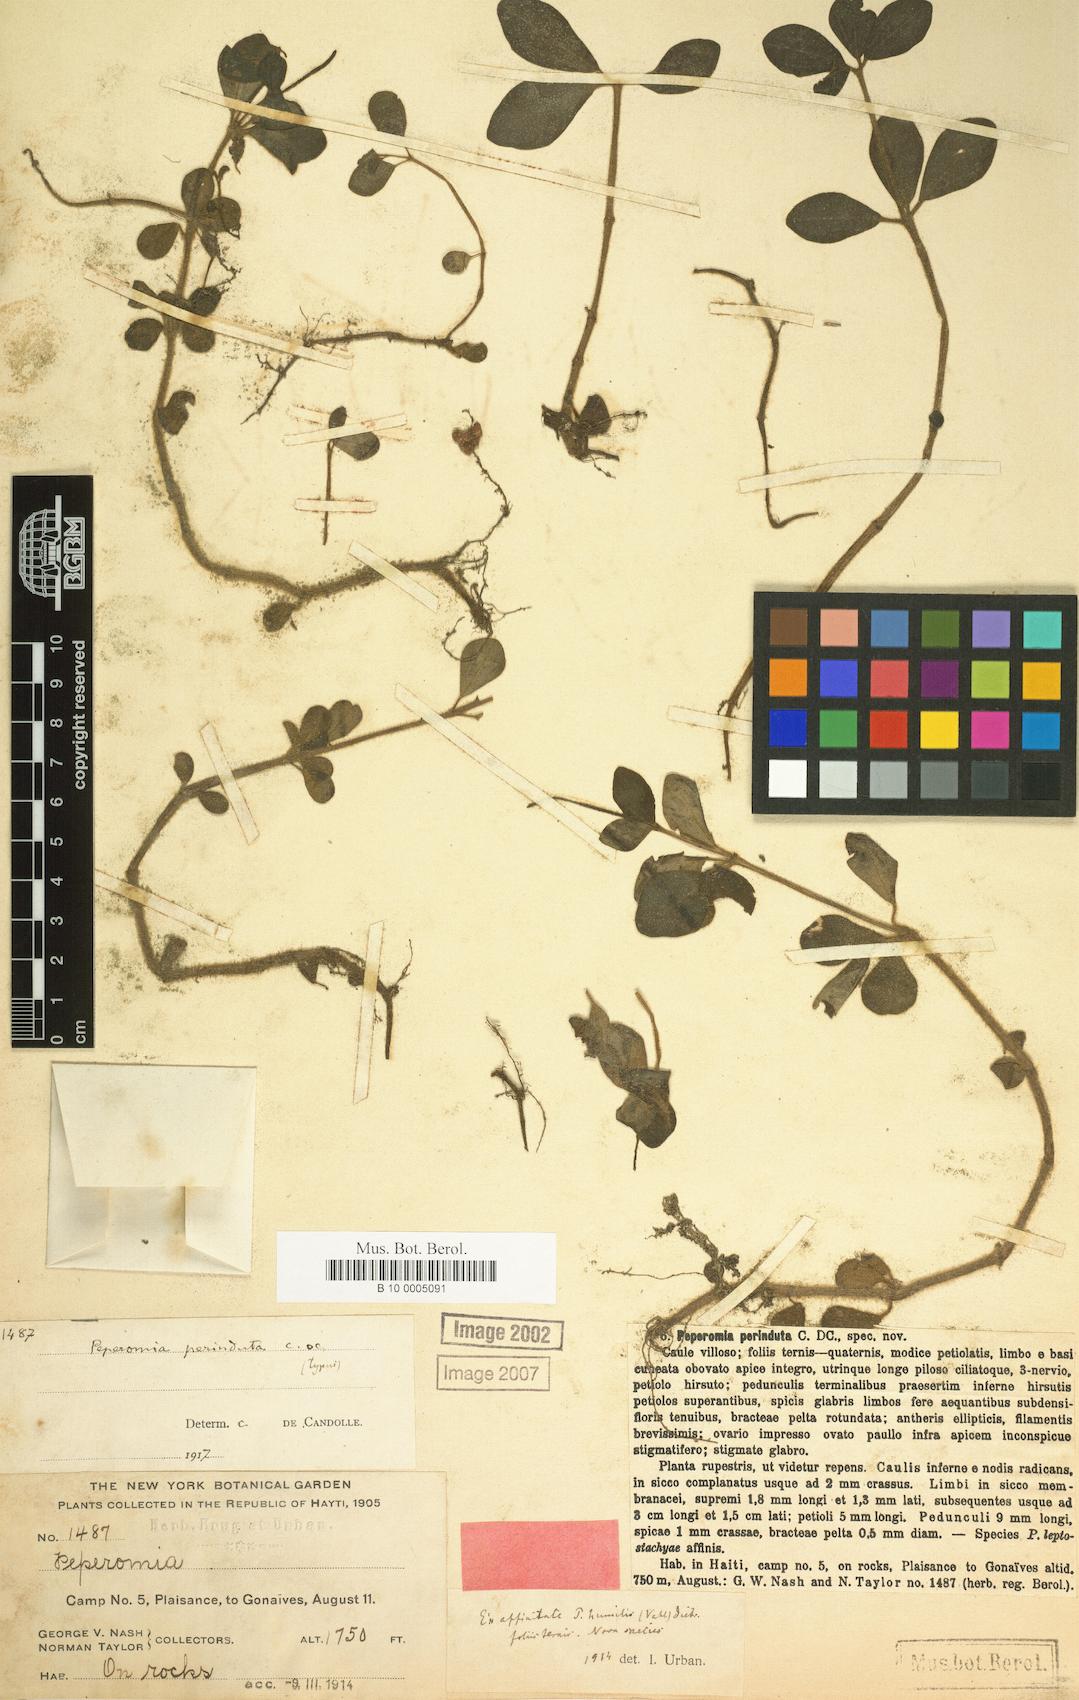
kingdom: Plantae
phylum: Tracheophyta
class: Magnoliopsida
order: Piperales
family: Piperaceae
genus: Peperomia
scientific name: Peperomia san-carlosiana
